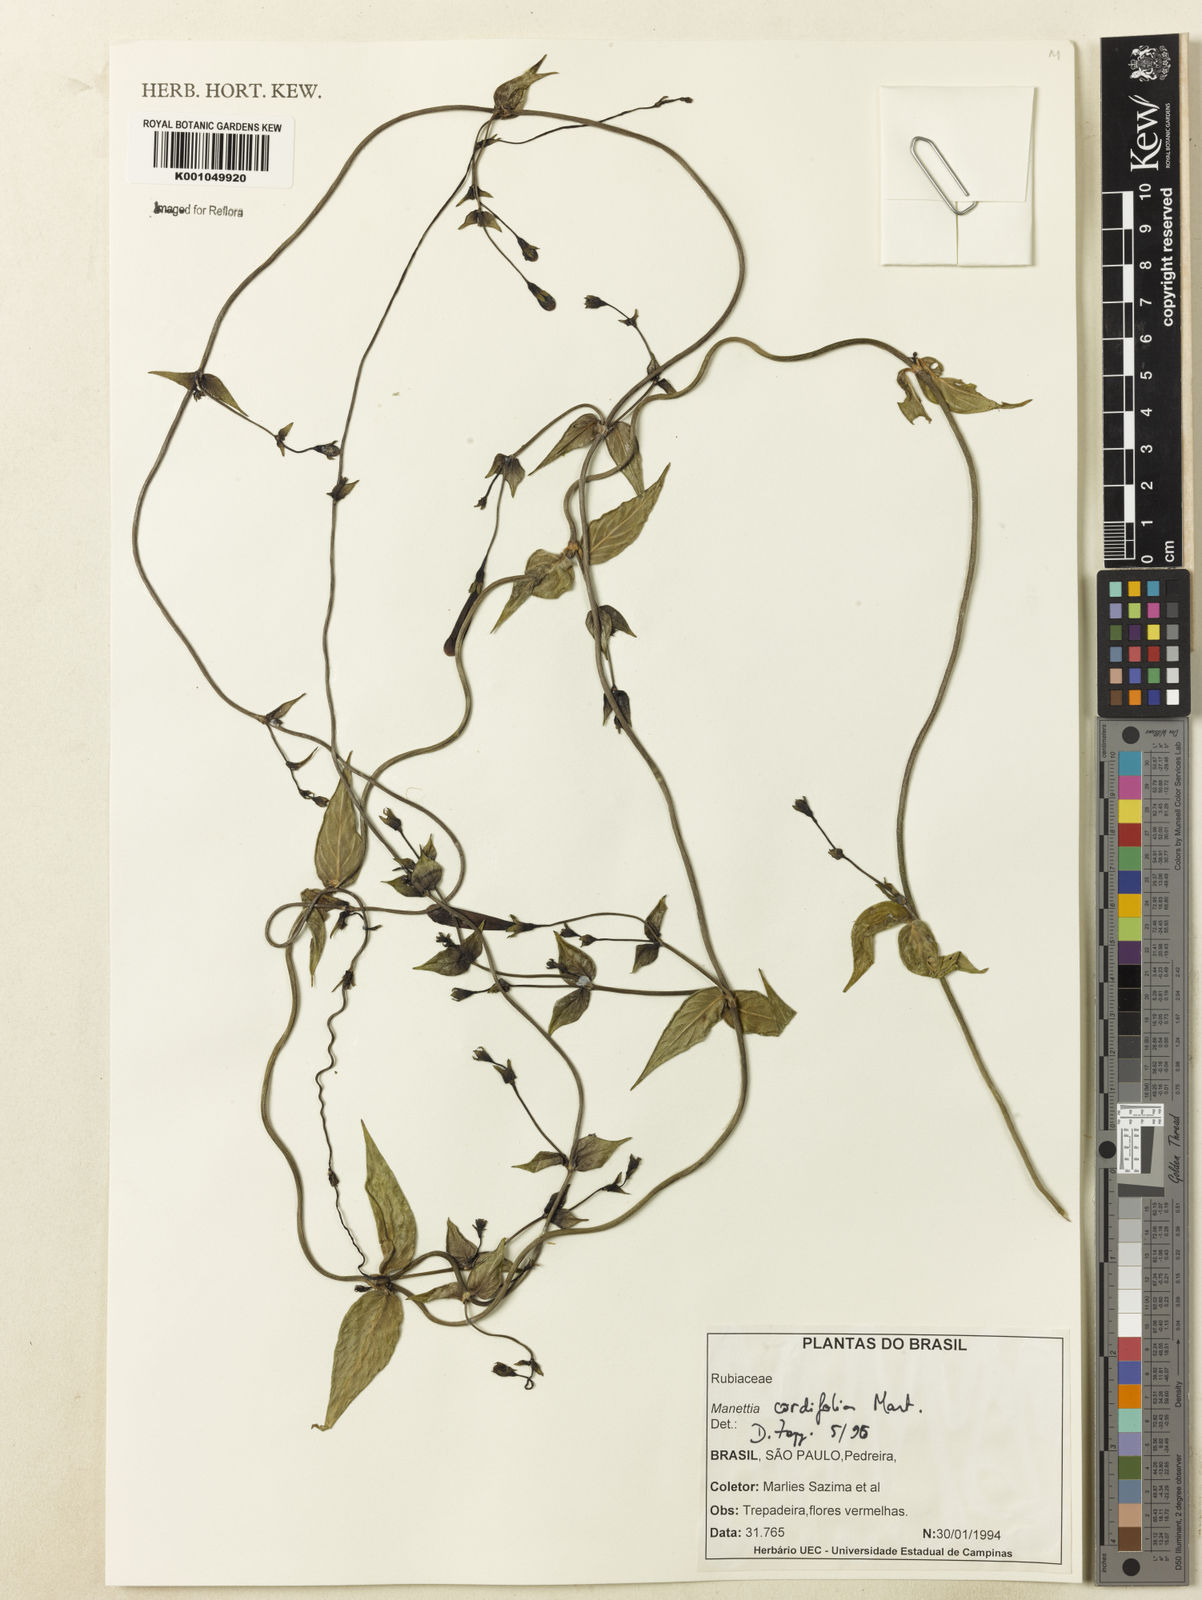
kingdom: Plantae
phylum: Tracheophyta
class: Magnoliopsida
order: Gentianales
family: Rubiaceae
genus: Manettia
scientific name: Manettia cordifolia
